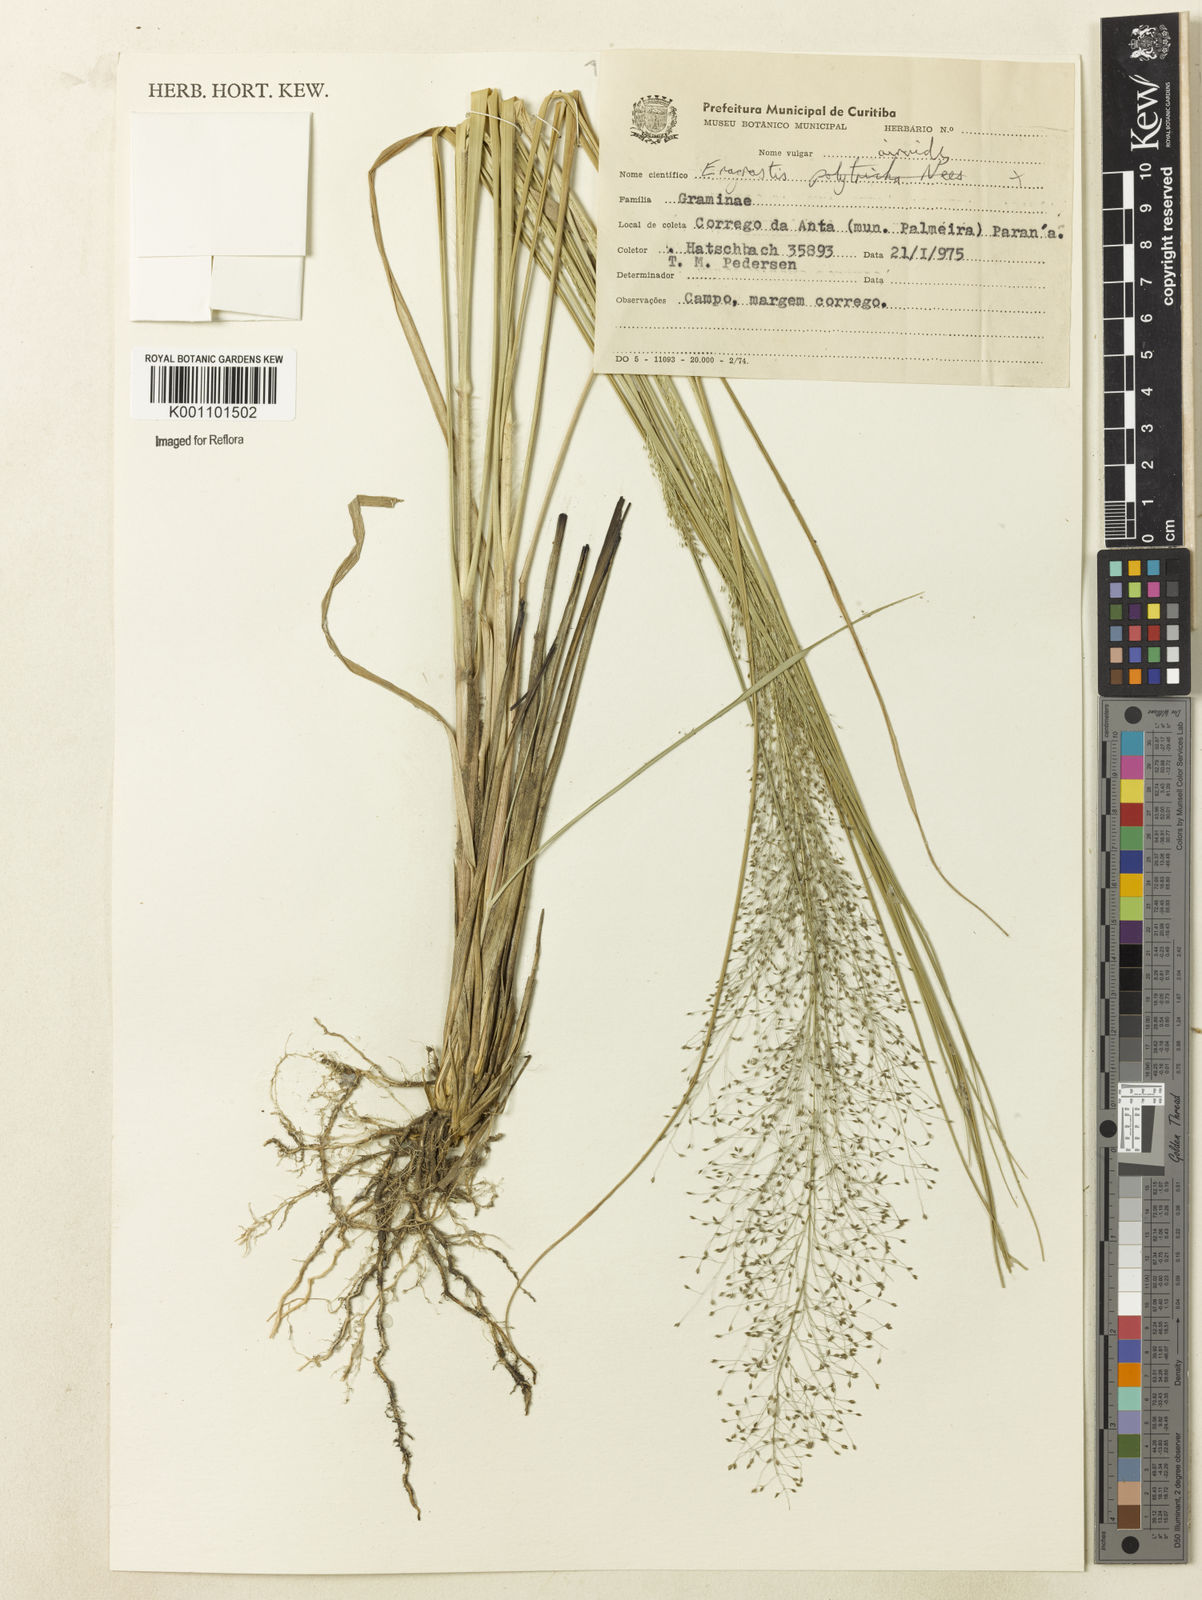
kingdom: Plantae
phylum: Tracheophyta
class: Liliopsida
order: Poales
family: Poaceae
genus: Eragrostis
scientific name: Eragrostis airoides
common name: Darnel lovegrass
